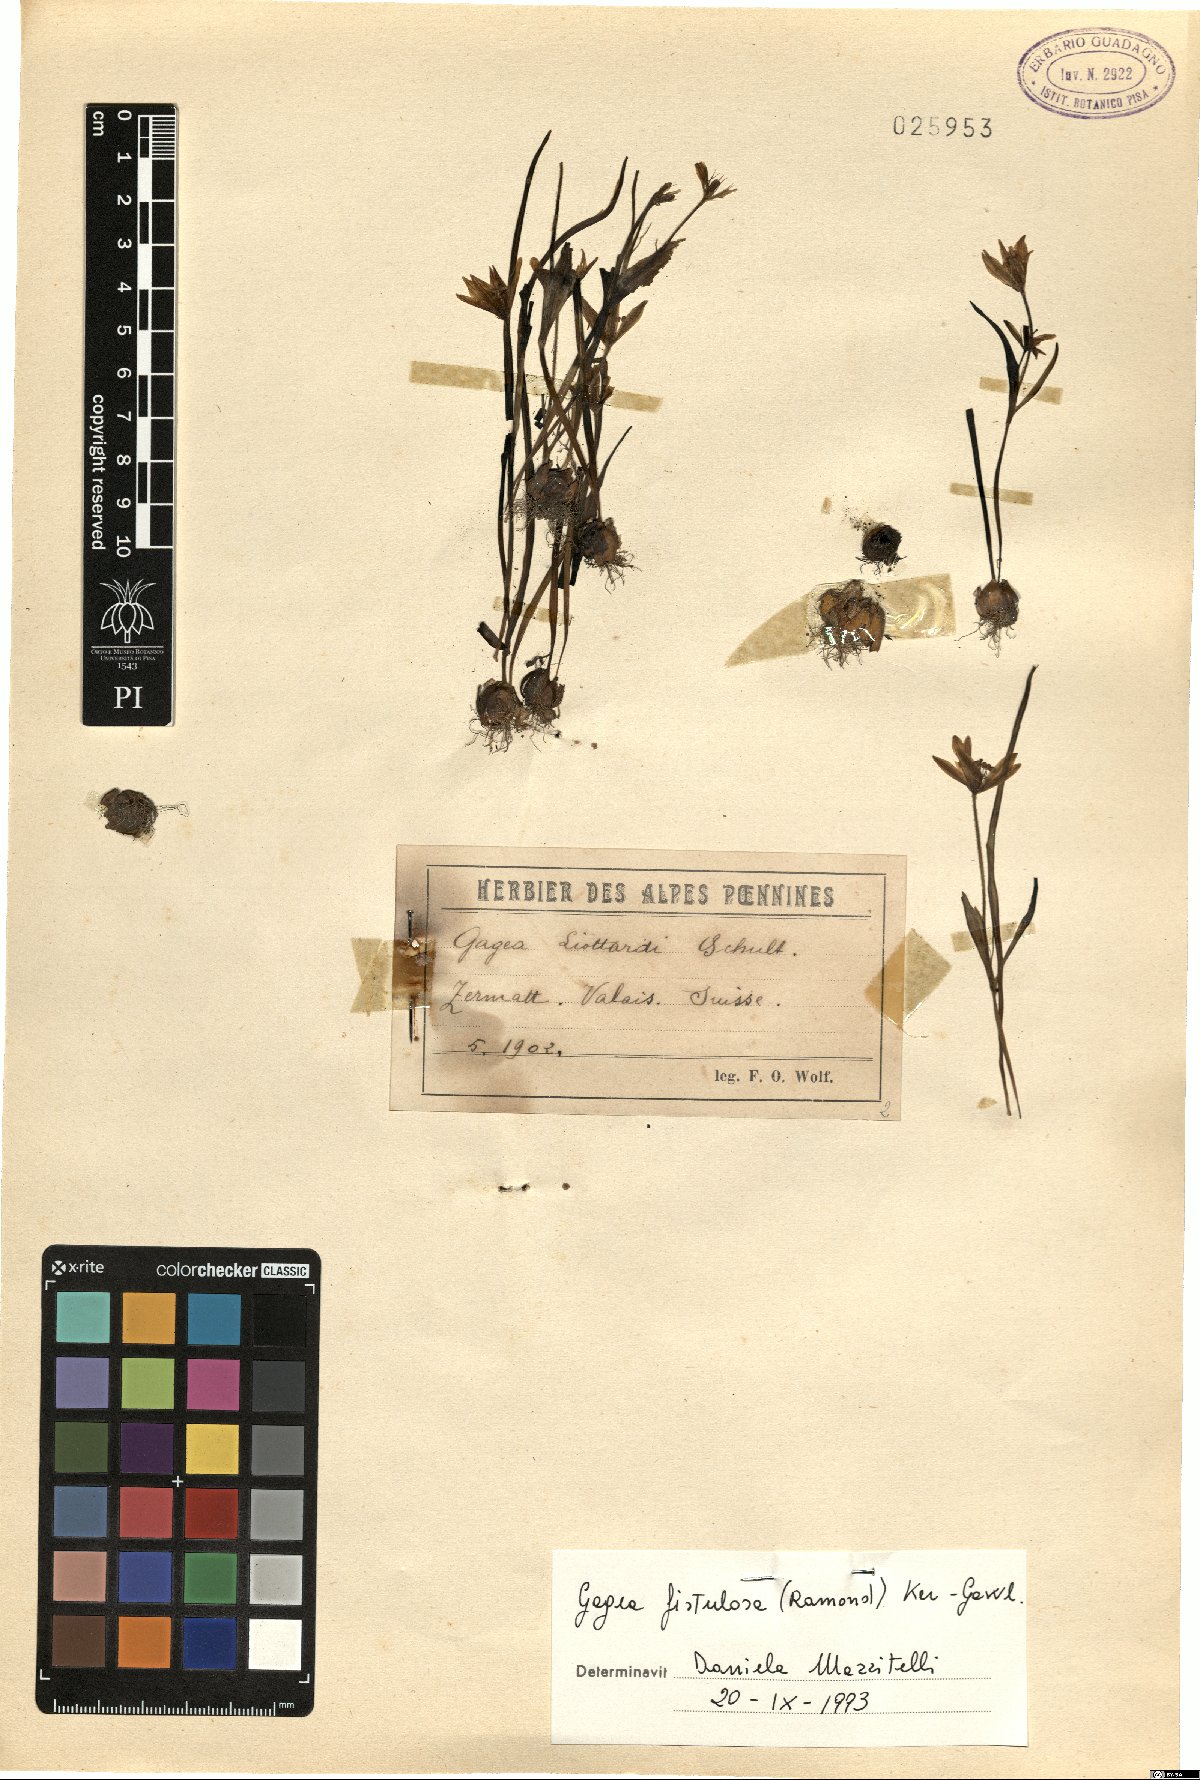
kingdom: Plantae
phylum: Tracheophyta
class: Liliopsida
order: Liliales
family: Liliaceae
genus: Gagea
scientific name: Gagea bohemica
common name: Early star-of-bethlehem
